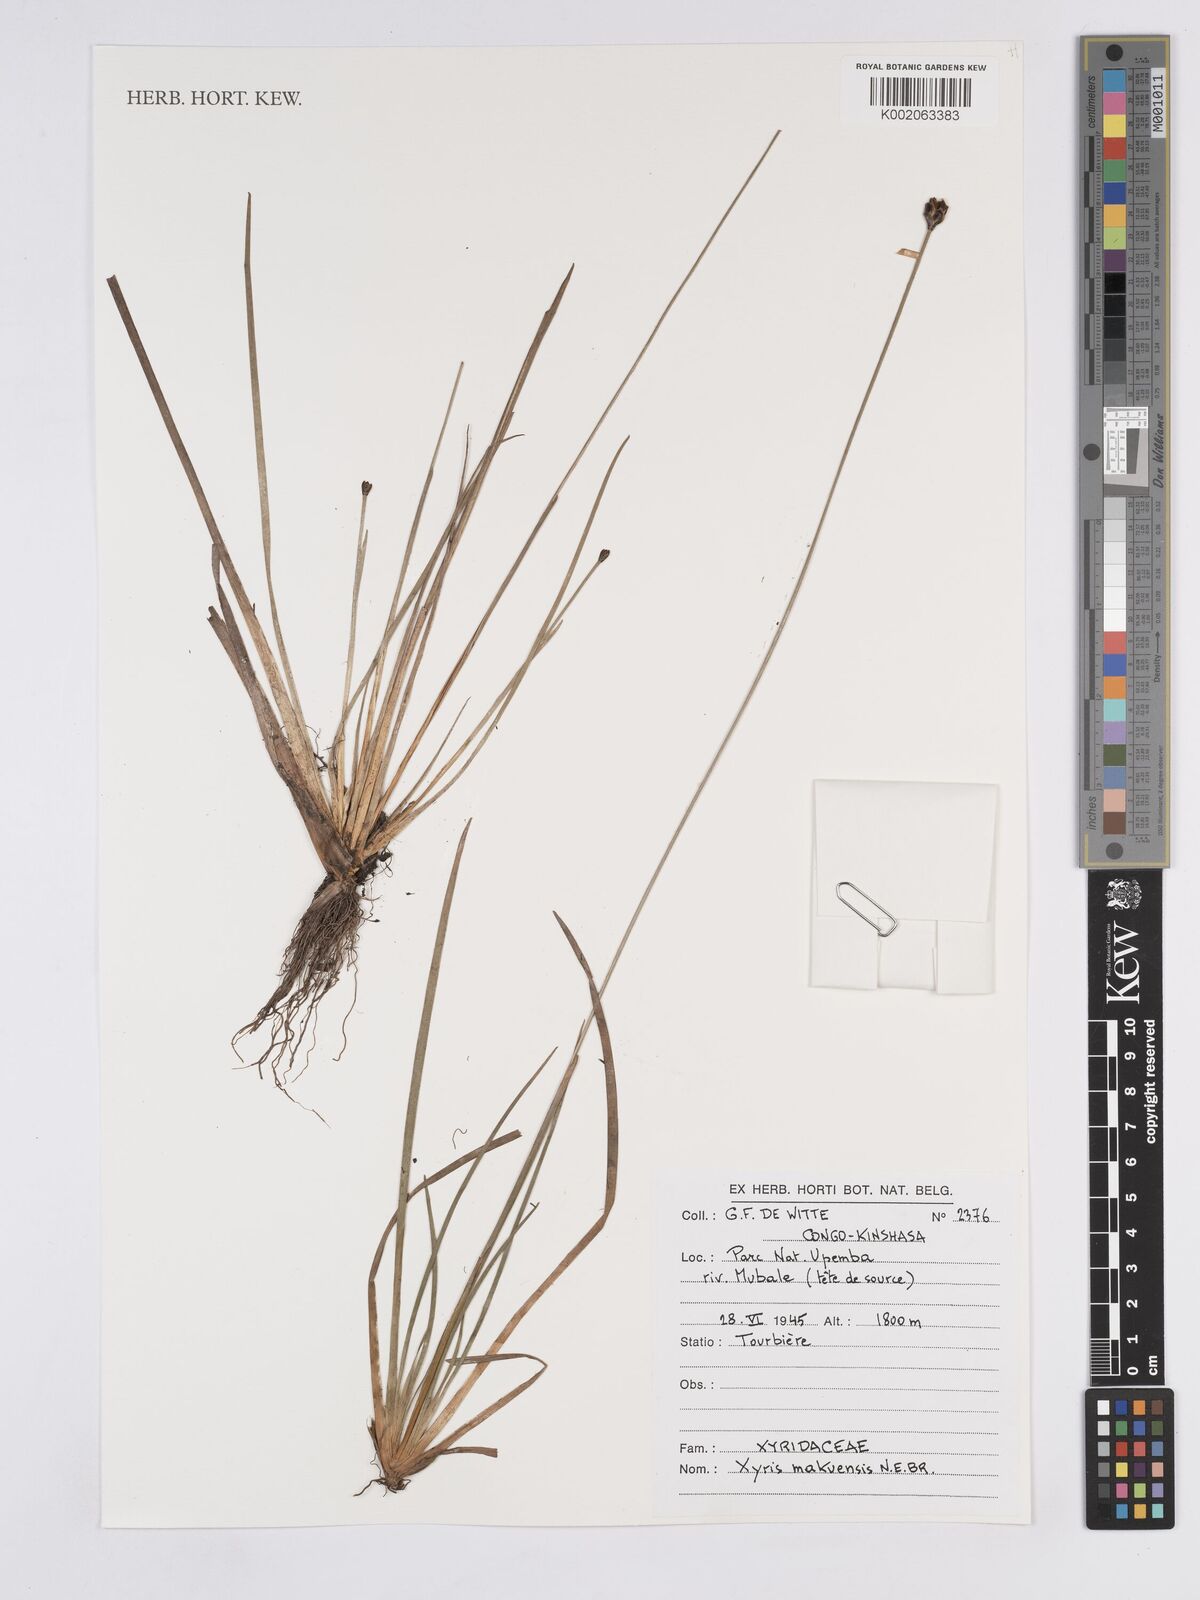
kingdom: Plantae
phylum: Tracheophyta
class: Liliopsida
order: Poales
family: Xyridaceae
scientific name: Xyridaceae
